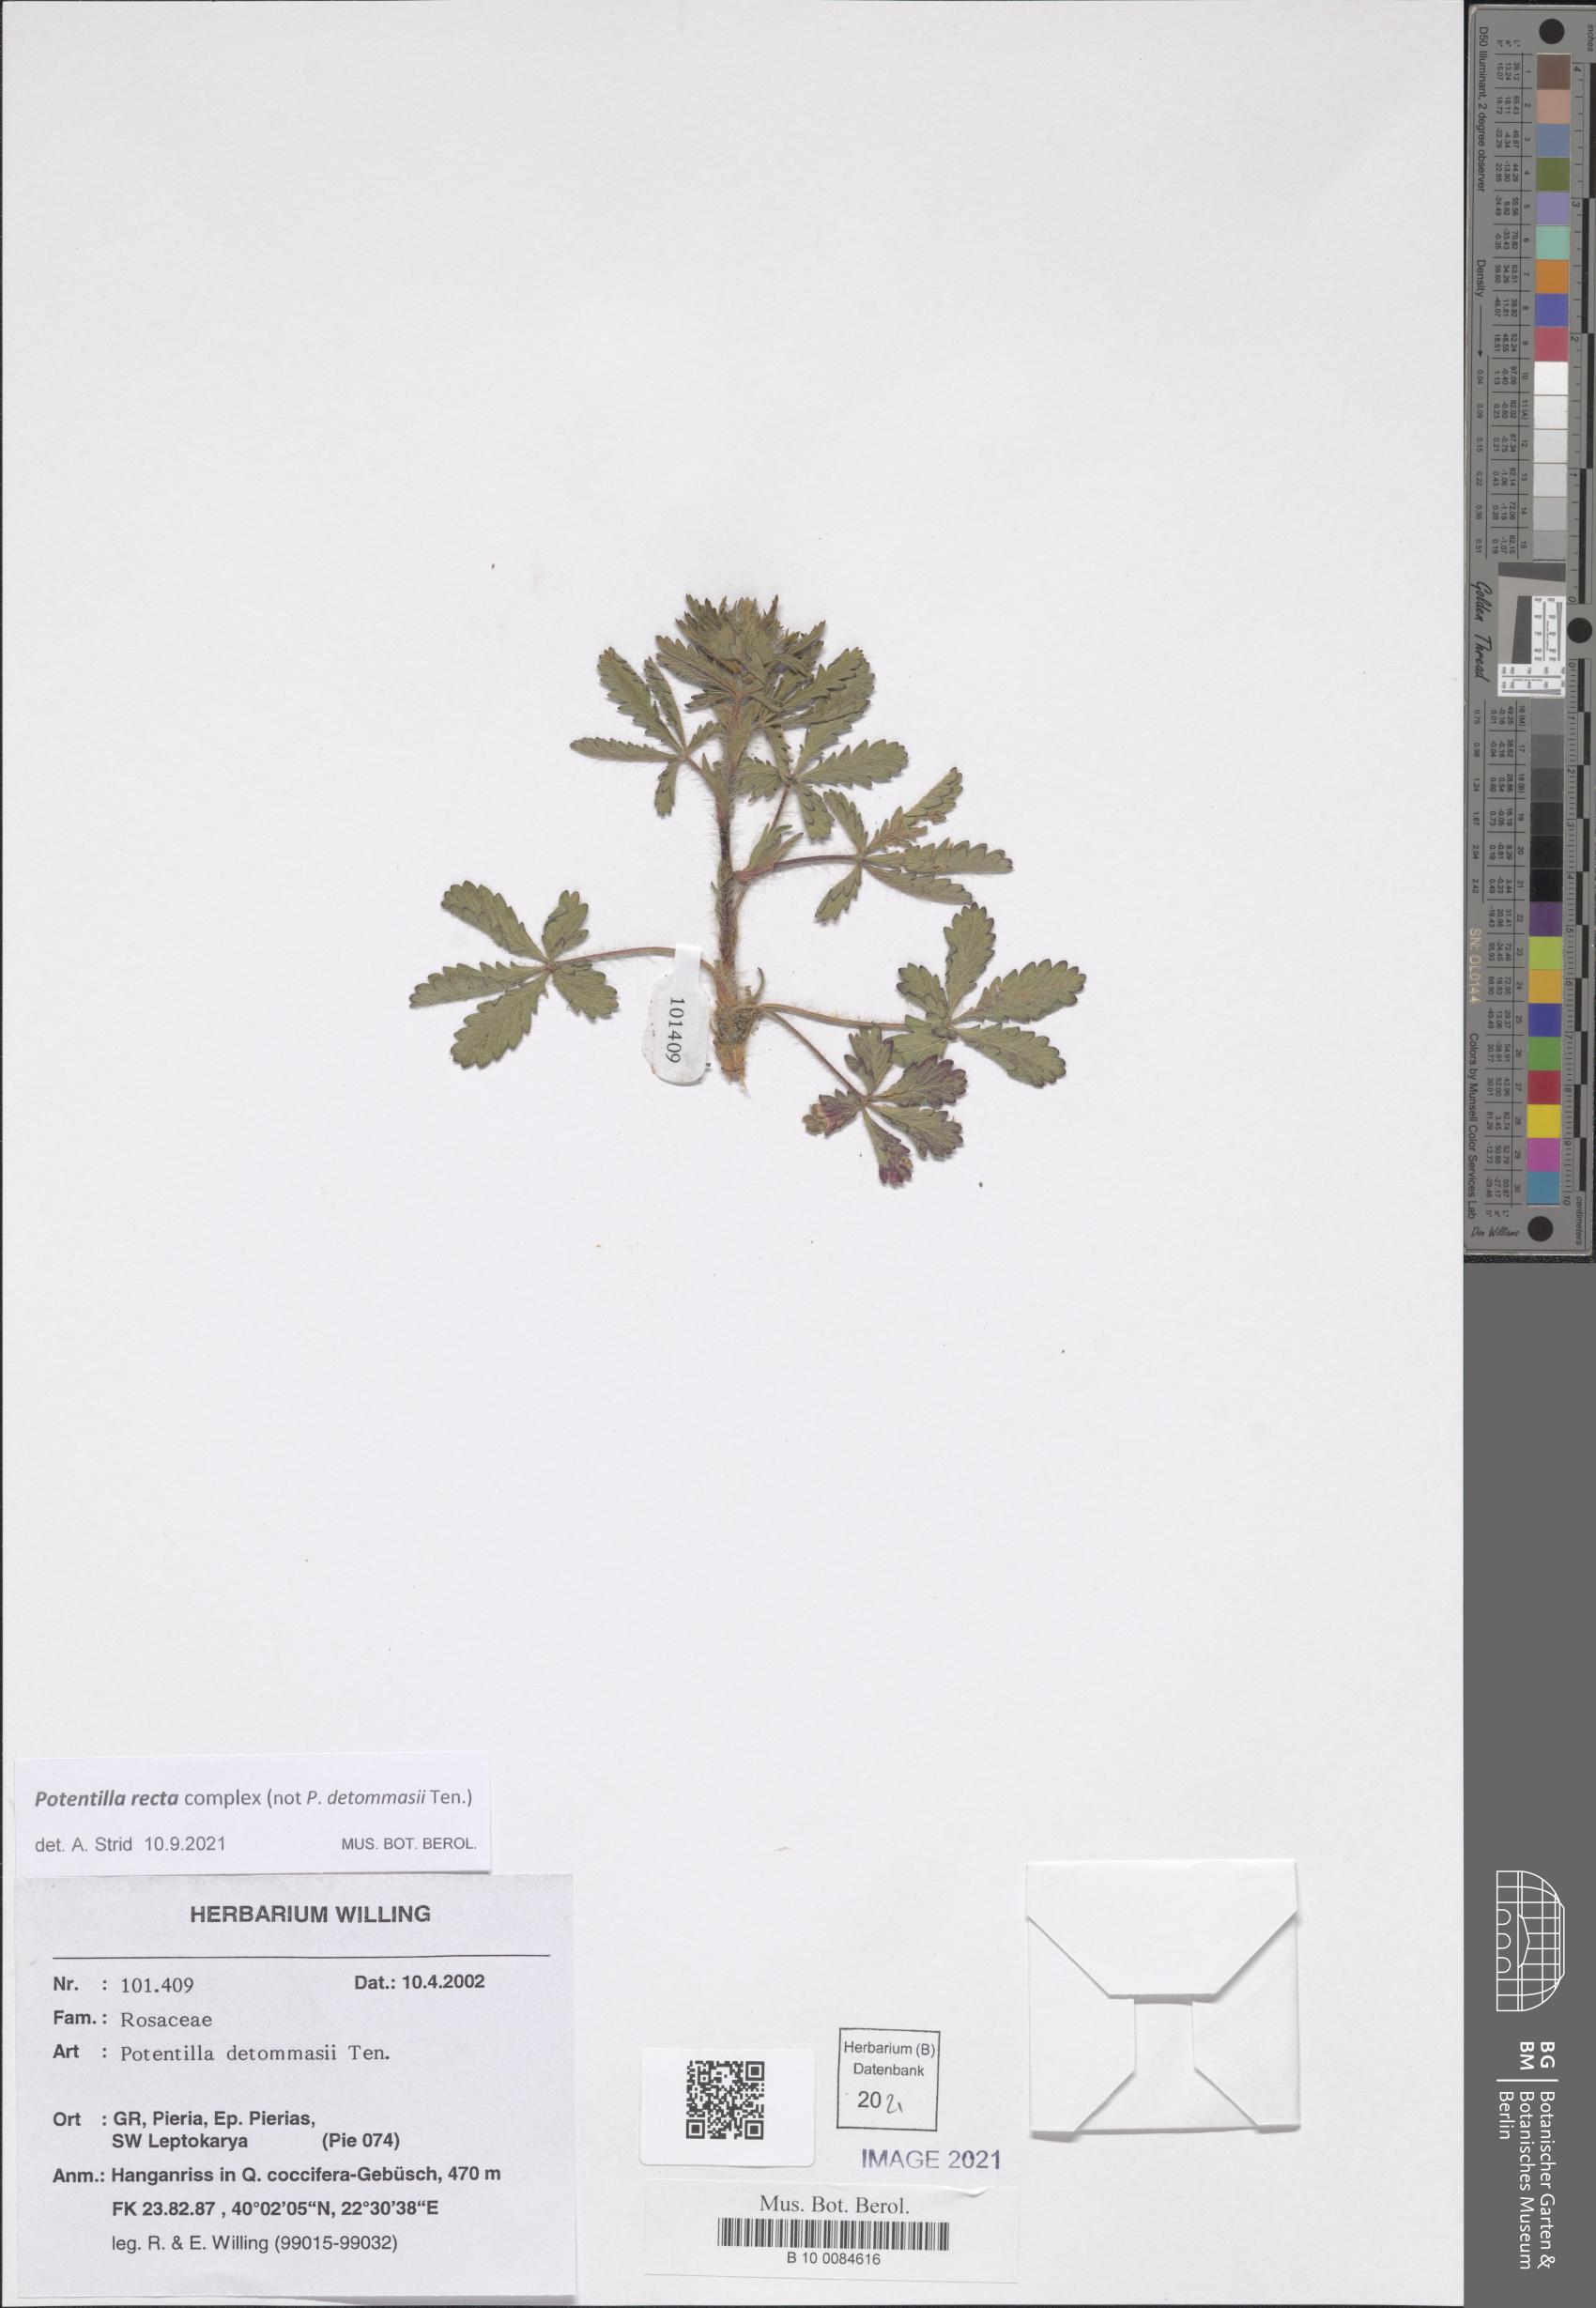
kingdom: Plantae
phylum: Tracheophyta
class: Magnoliopsida
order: Rosales
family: Rosaceae
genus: Potentilla
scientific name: Potentilla recta
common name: Sulphur cinquefoil
